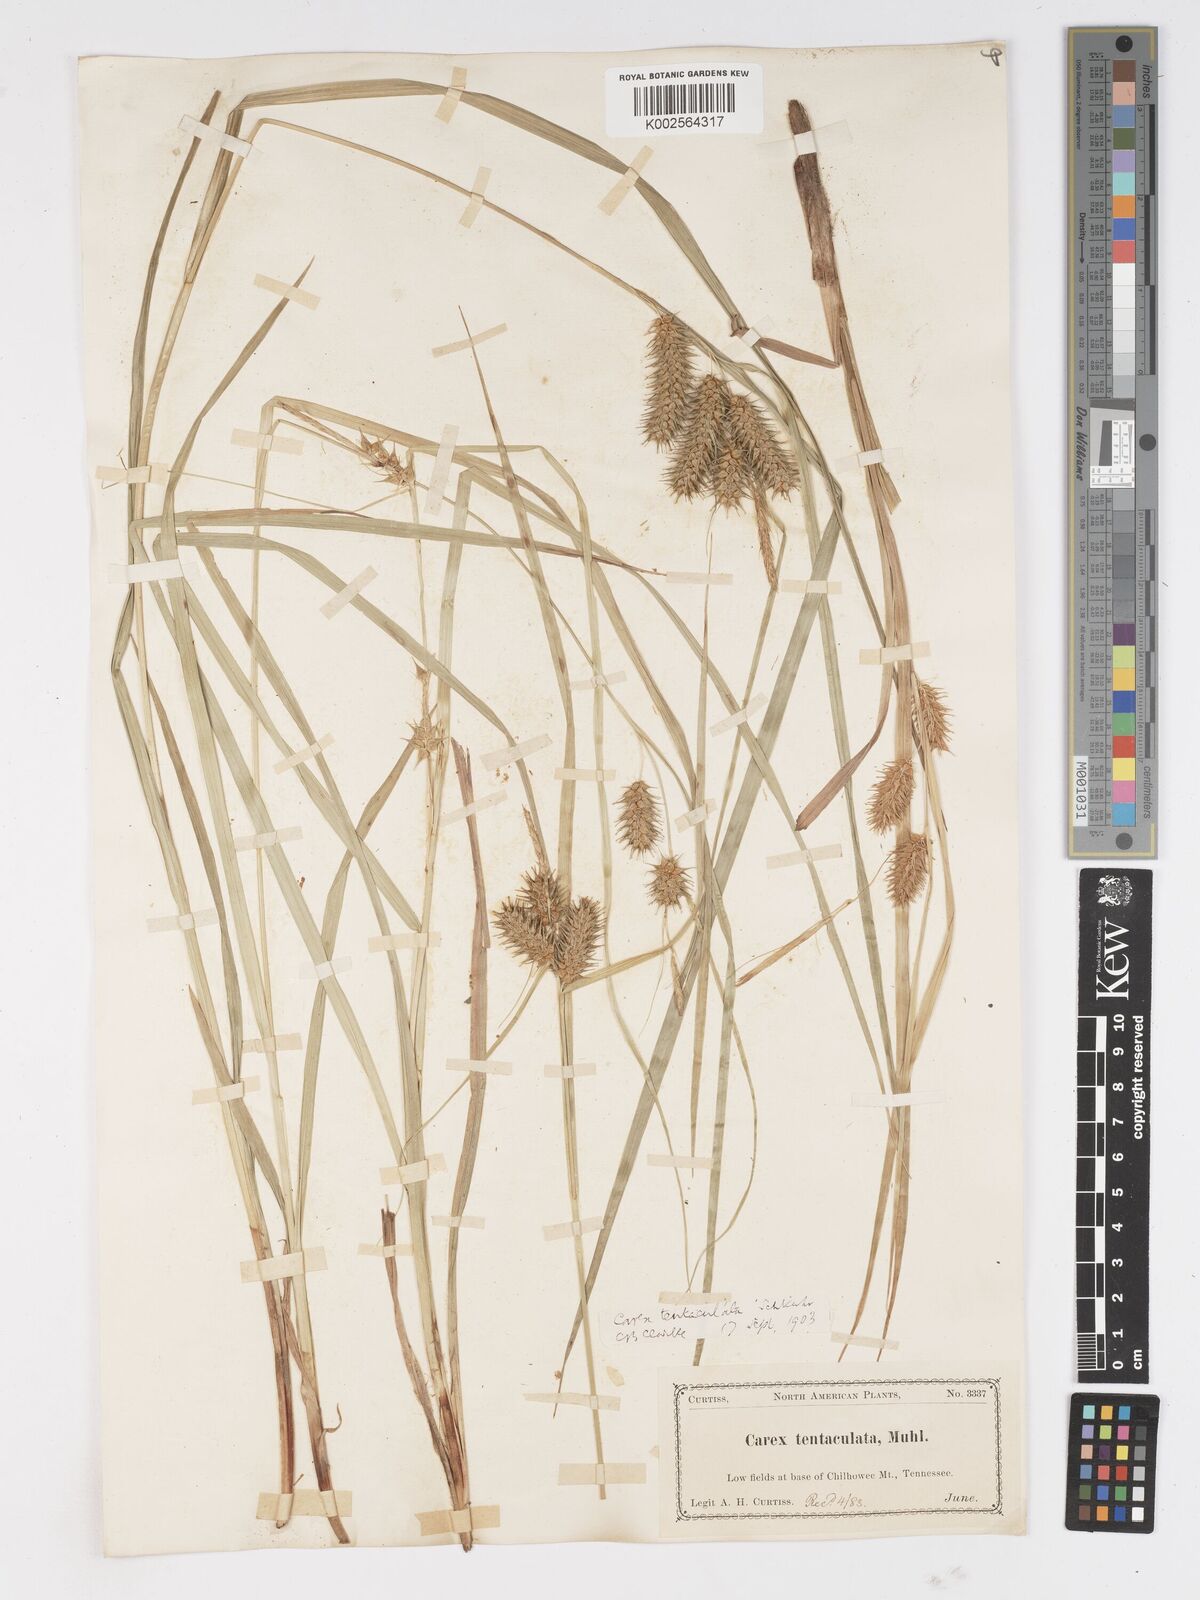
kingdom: Plantae
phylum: Tracheophyta
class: Liliopsida
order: Poales
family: Cyperaceae
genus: Carex
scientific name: Carex lurida
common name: Sallow sedge
